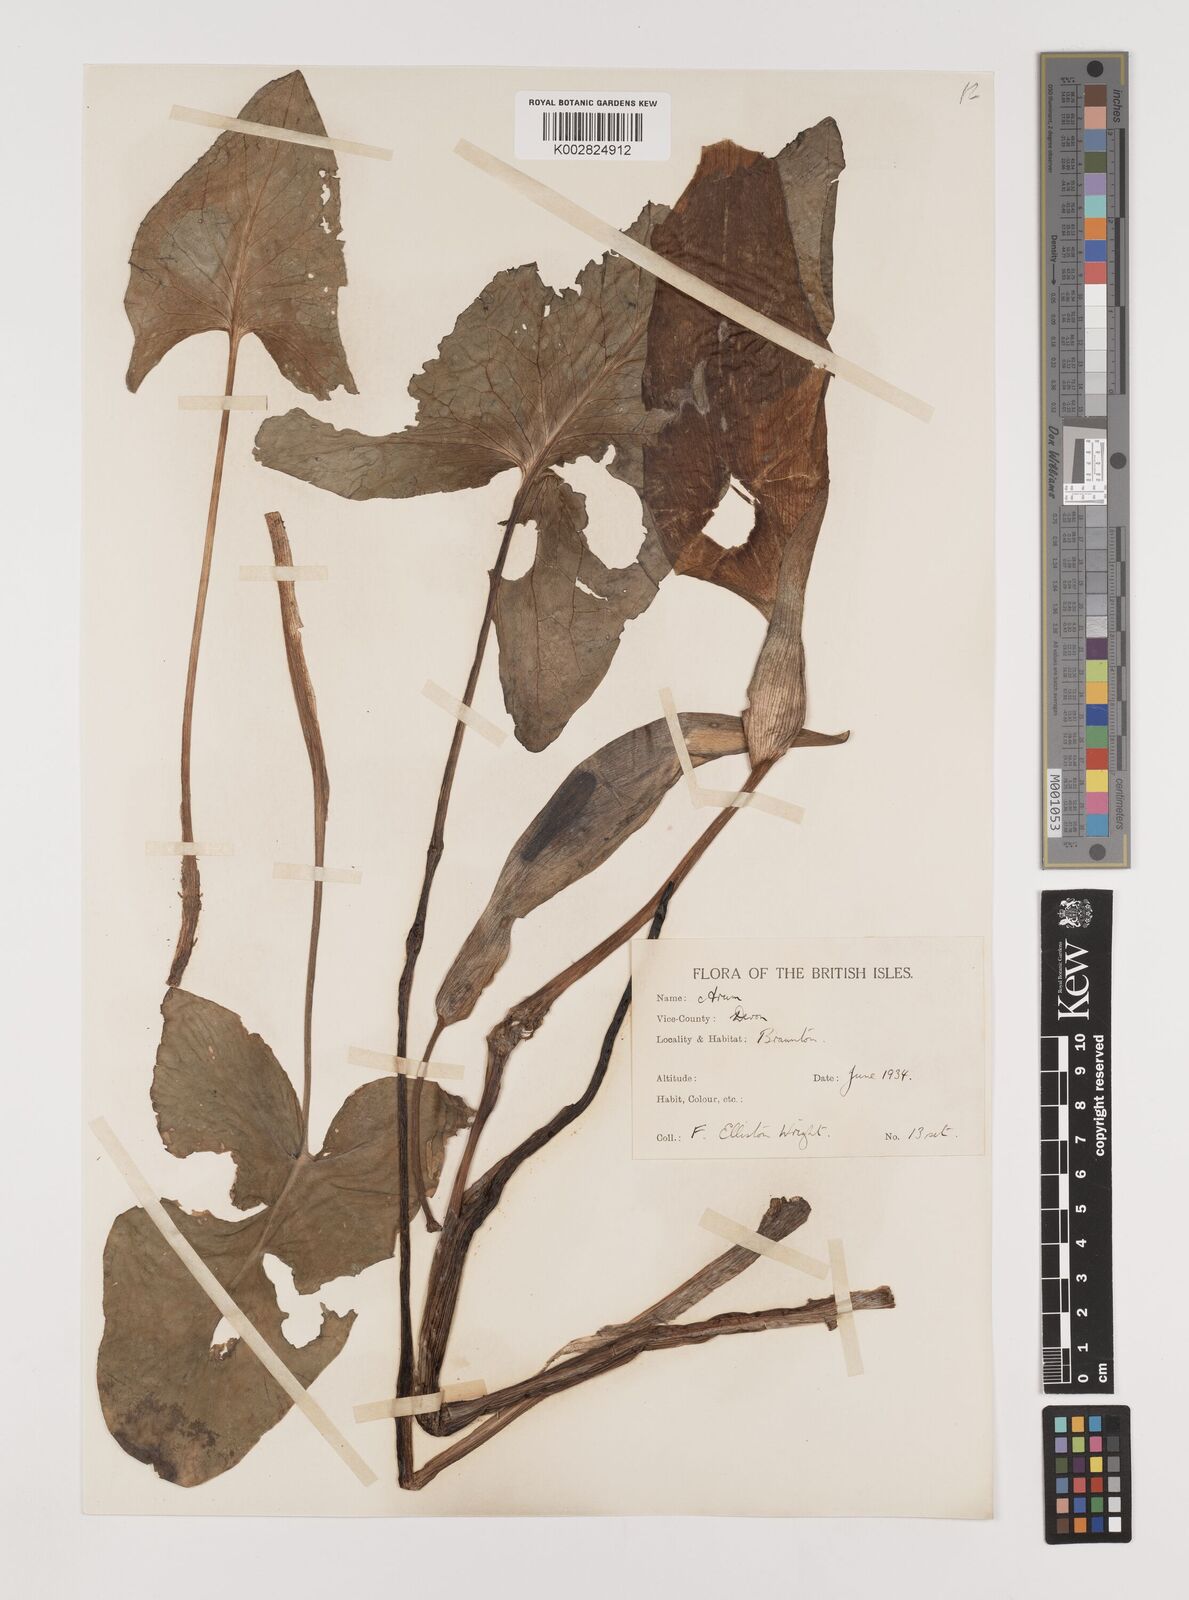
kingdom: Plantae
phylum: Tracheophyta
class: Liliopsida
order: Alismatales
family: Araceae
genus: Arum
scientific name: Arum italicum
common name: Italian lords-and-ladies
